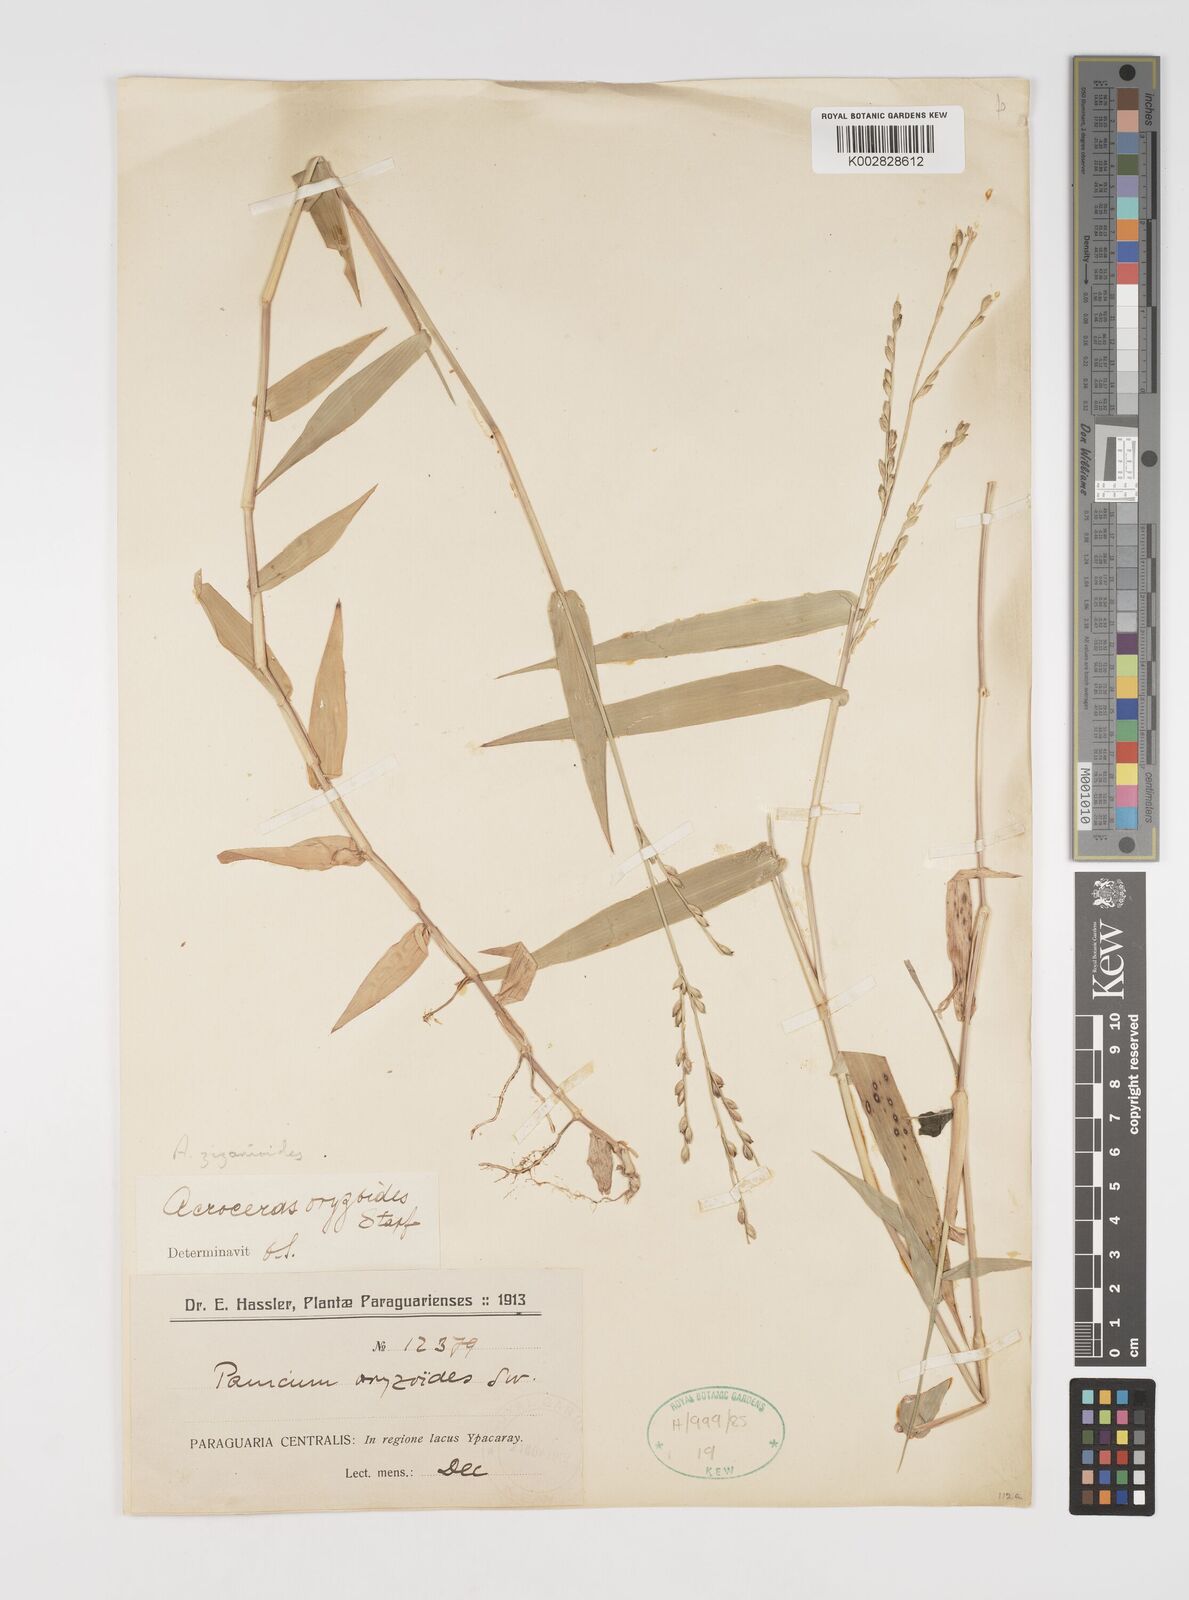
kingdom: Plantae
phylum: Tracheophyta
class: Liliopsida
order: Poales
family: Poaceae
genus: Acroceras
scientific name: Acroceras zizanioides
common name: Oat grass
